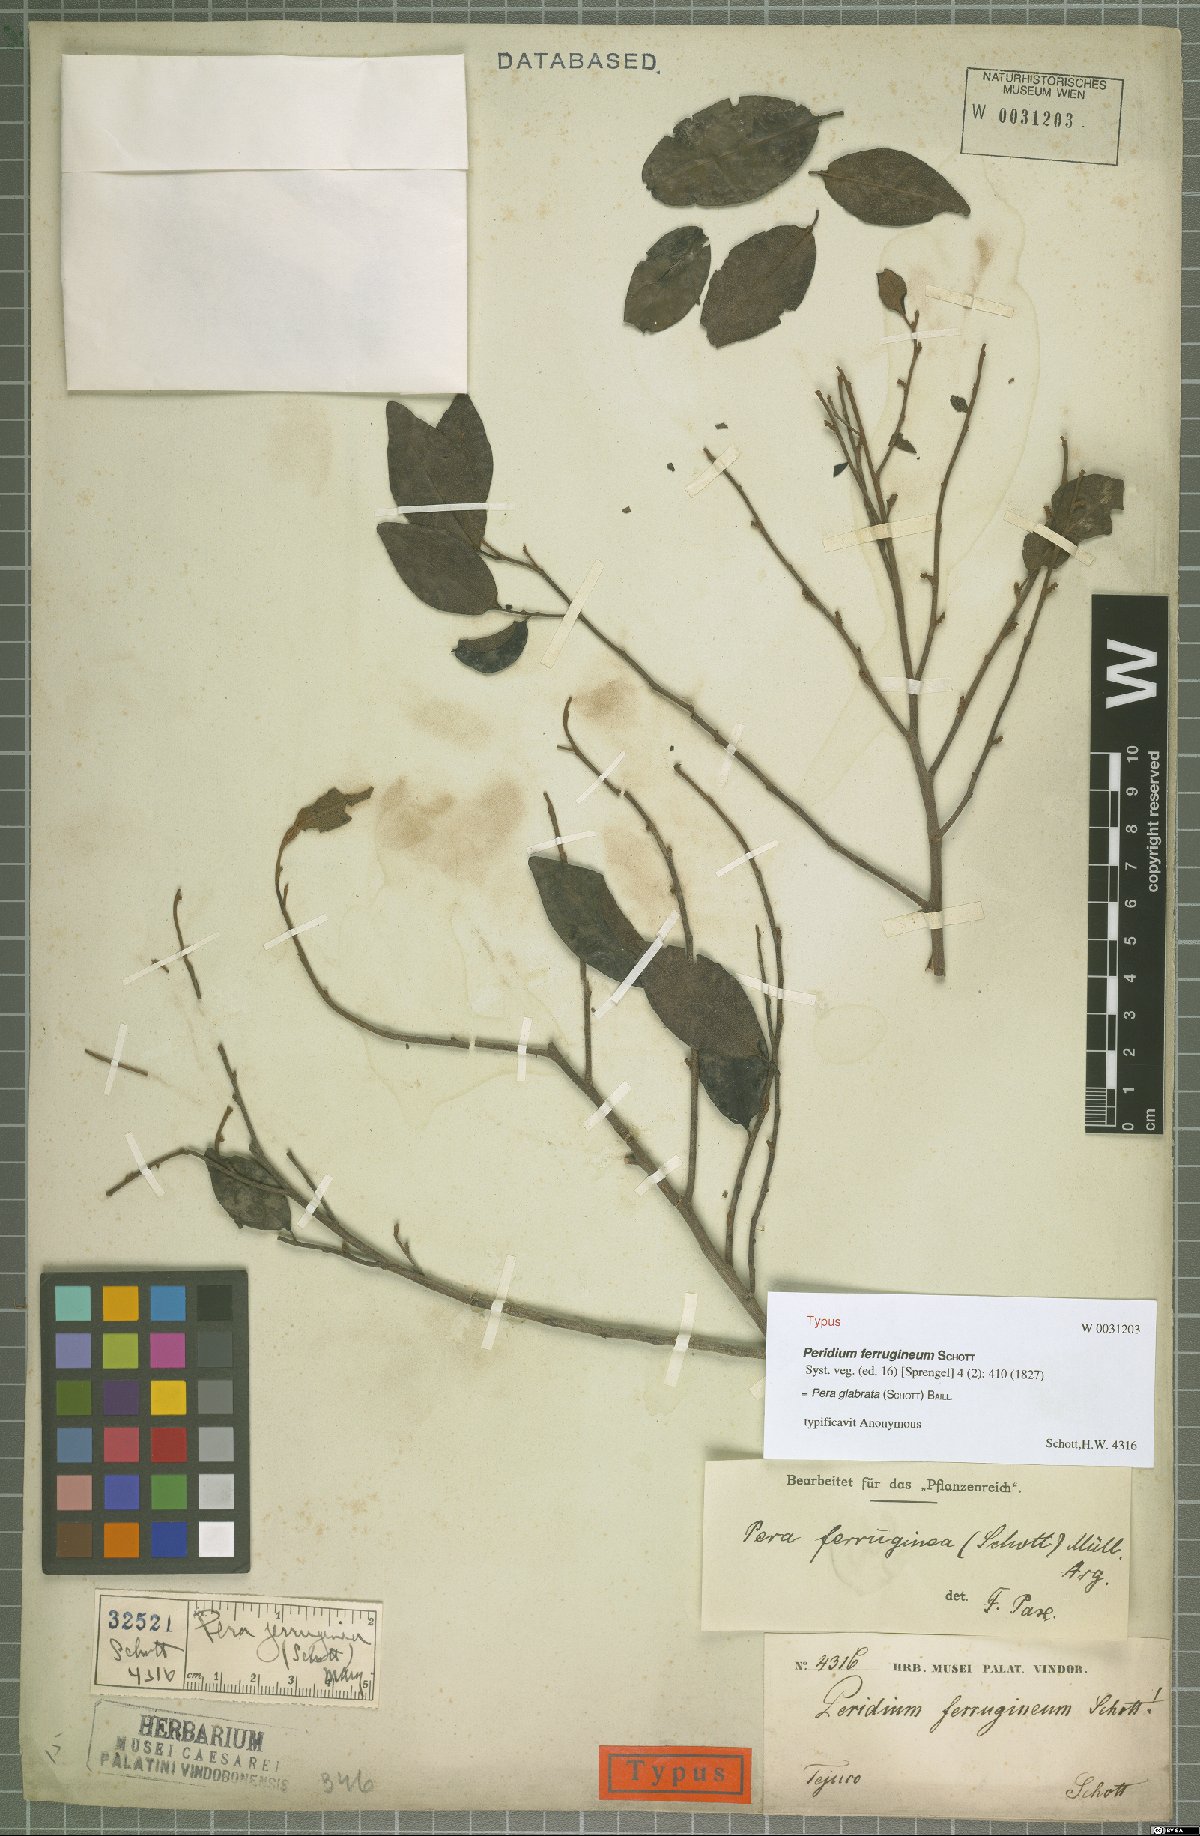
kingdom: Plantae
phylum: Tracheophyta
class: Magnoliopsida
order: Malpighiales
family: Peraceae
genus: Pera
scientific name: Pera glabrata
